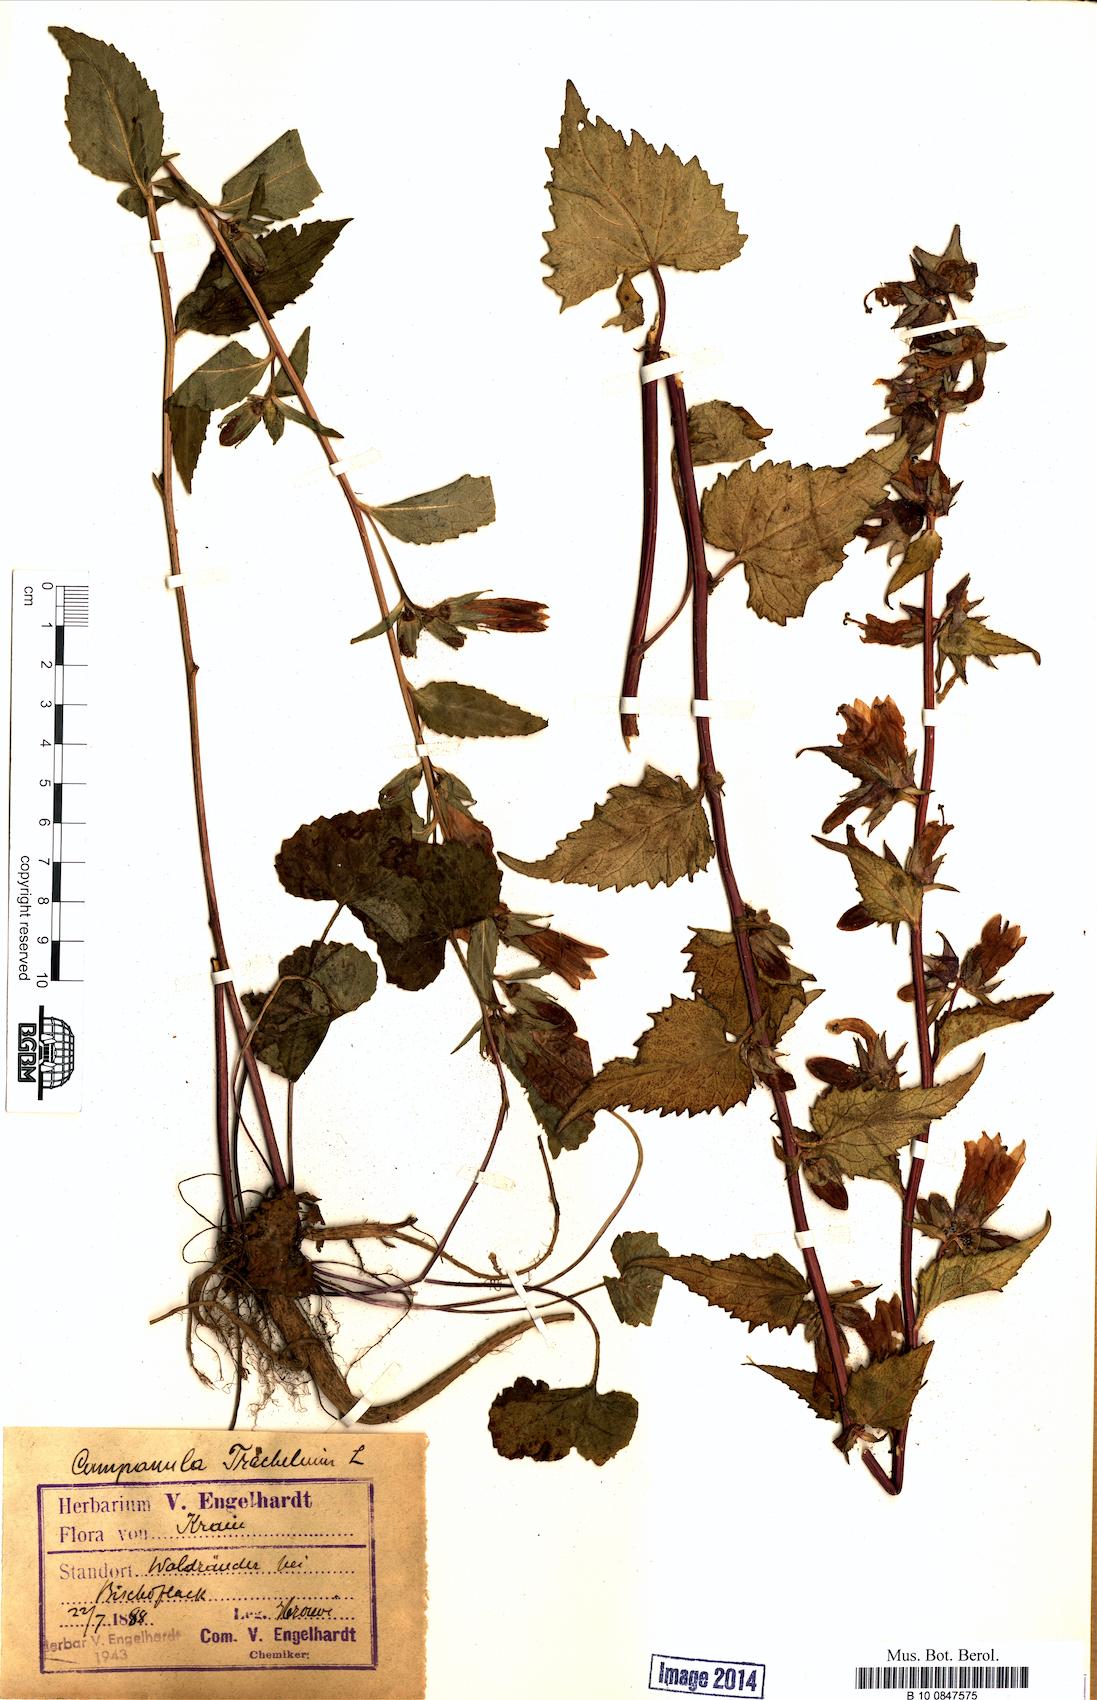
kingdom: Plantae
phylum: Tracheophyta
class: Magnoliopsida
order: Asterales
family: Campanulaceae
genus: Campanula
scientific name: Campanula trachelium
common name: Nettle-leaved bellflower
